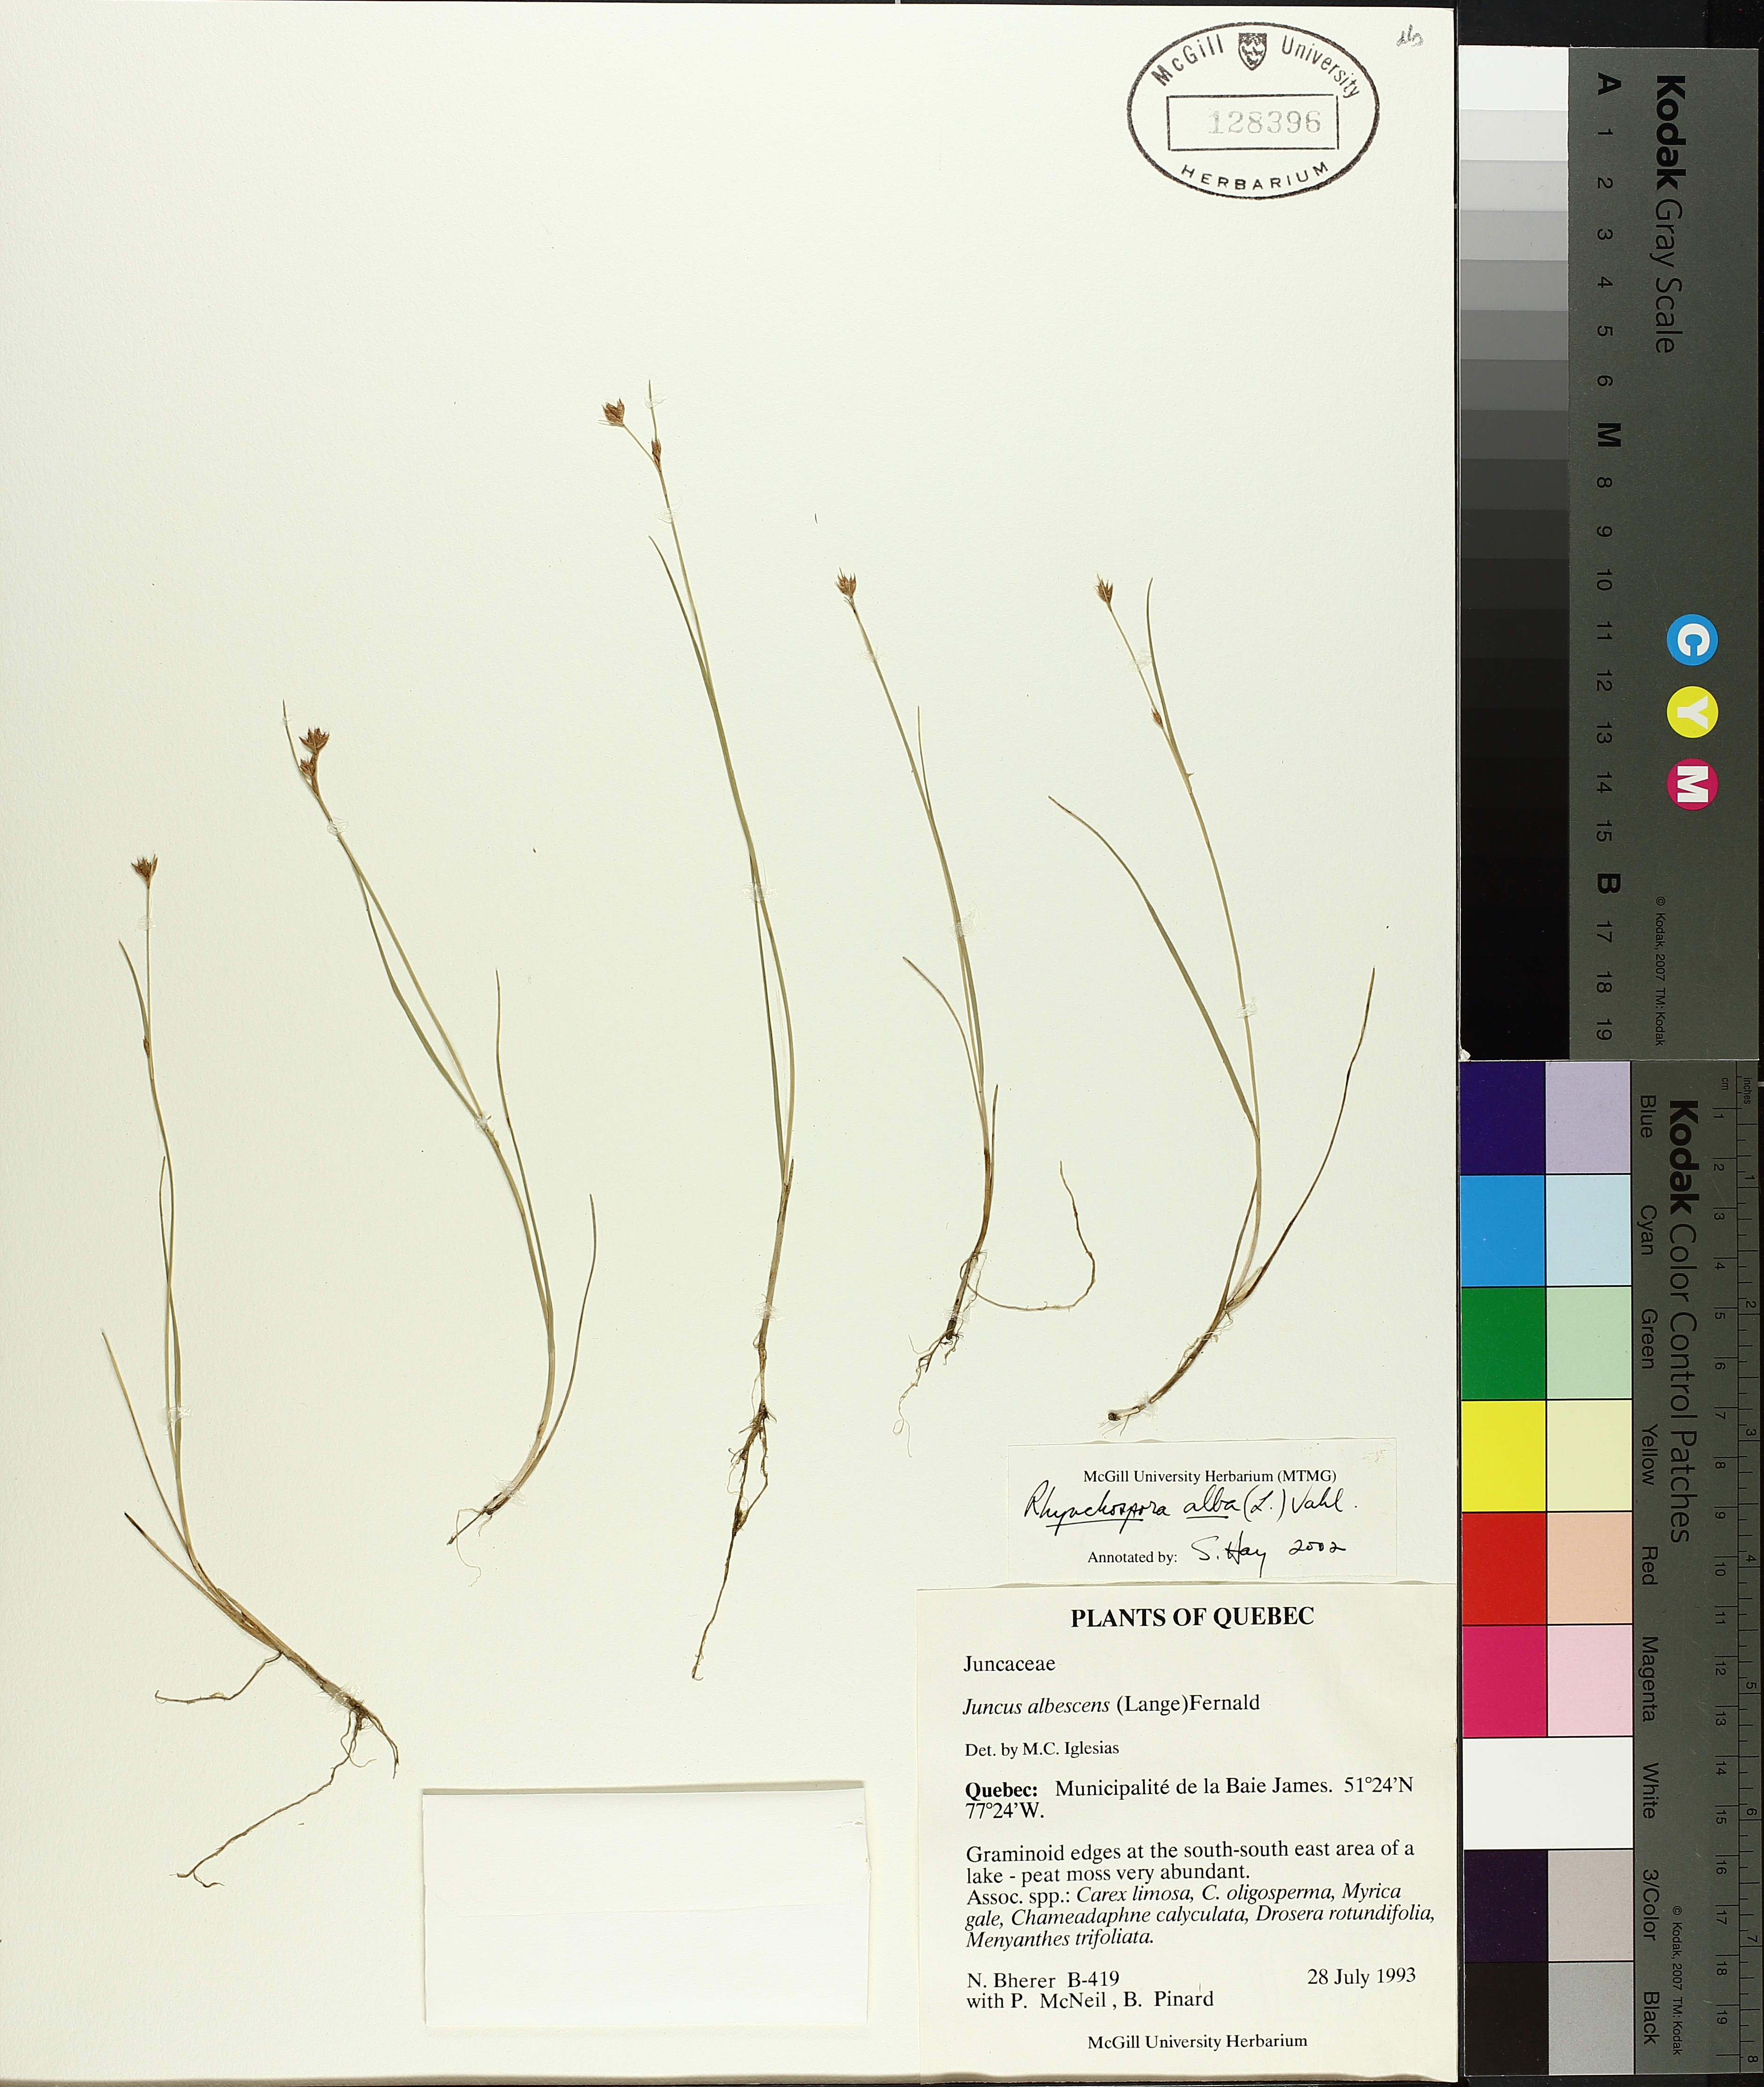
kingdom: Plantae
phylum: Tracheophyta
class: Liliopsida
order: Poales
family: Cyperaceae
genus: Rhynchospora
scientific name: Rhynchospora alba
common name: White beak-sedge
